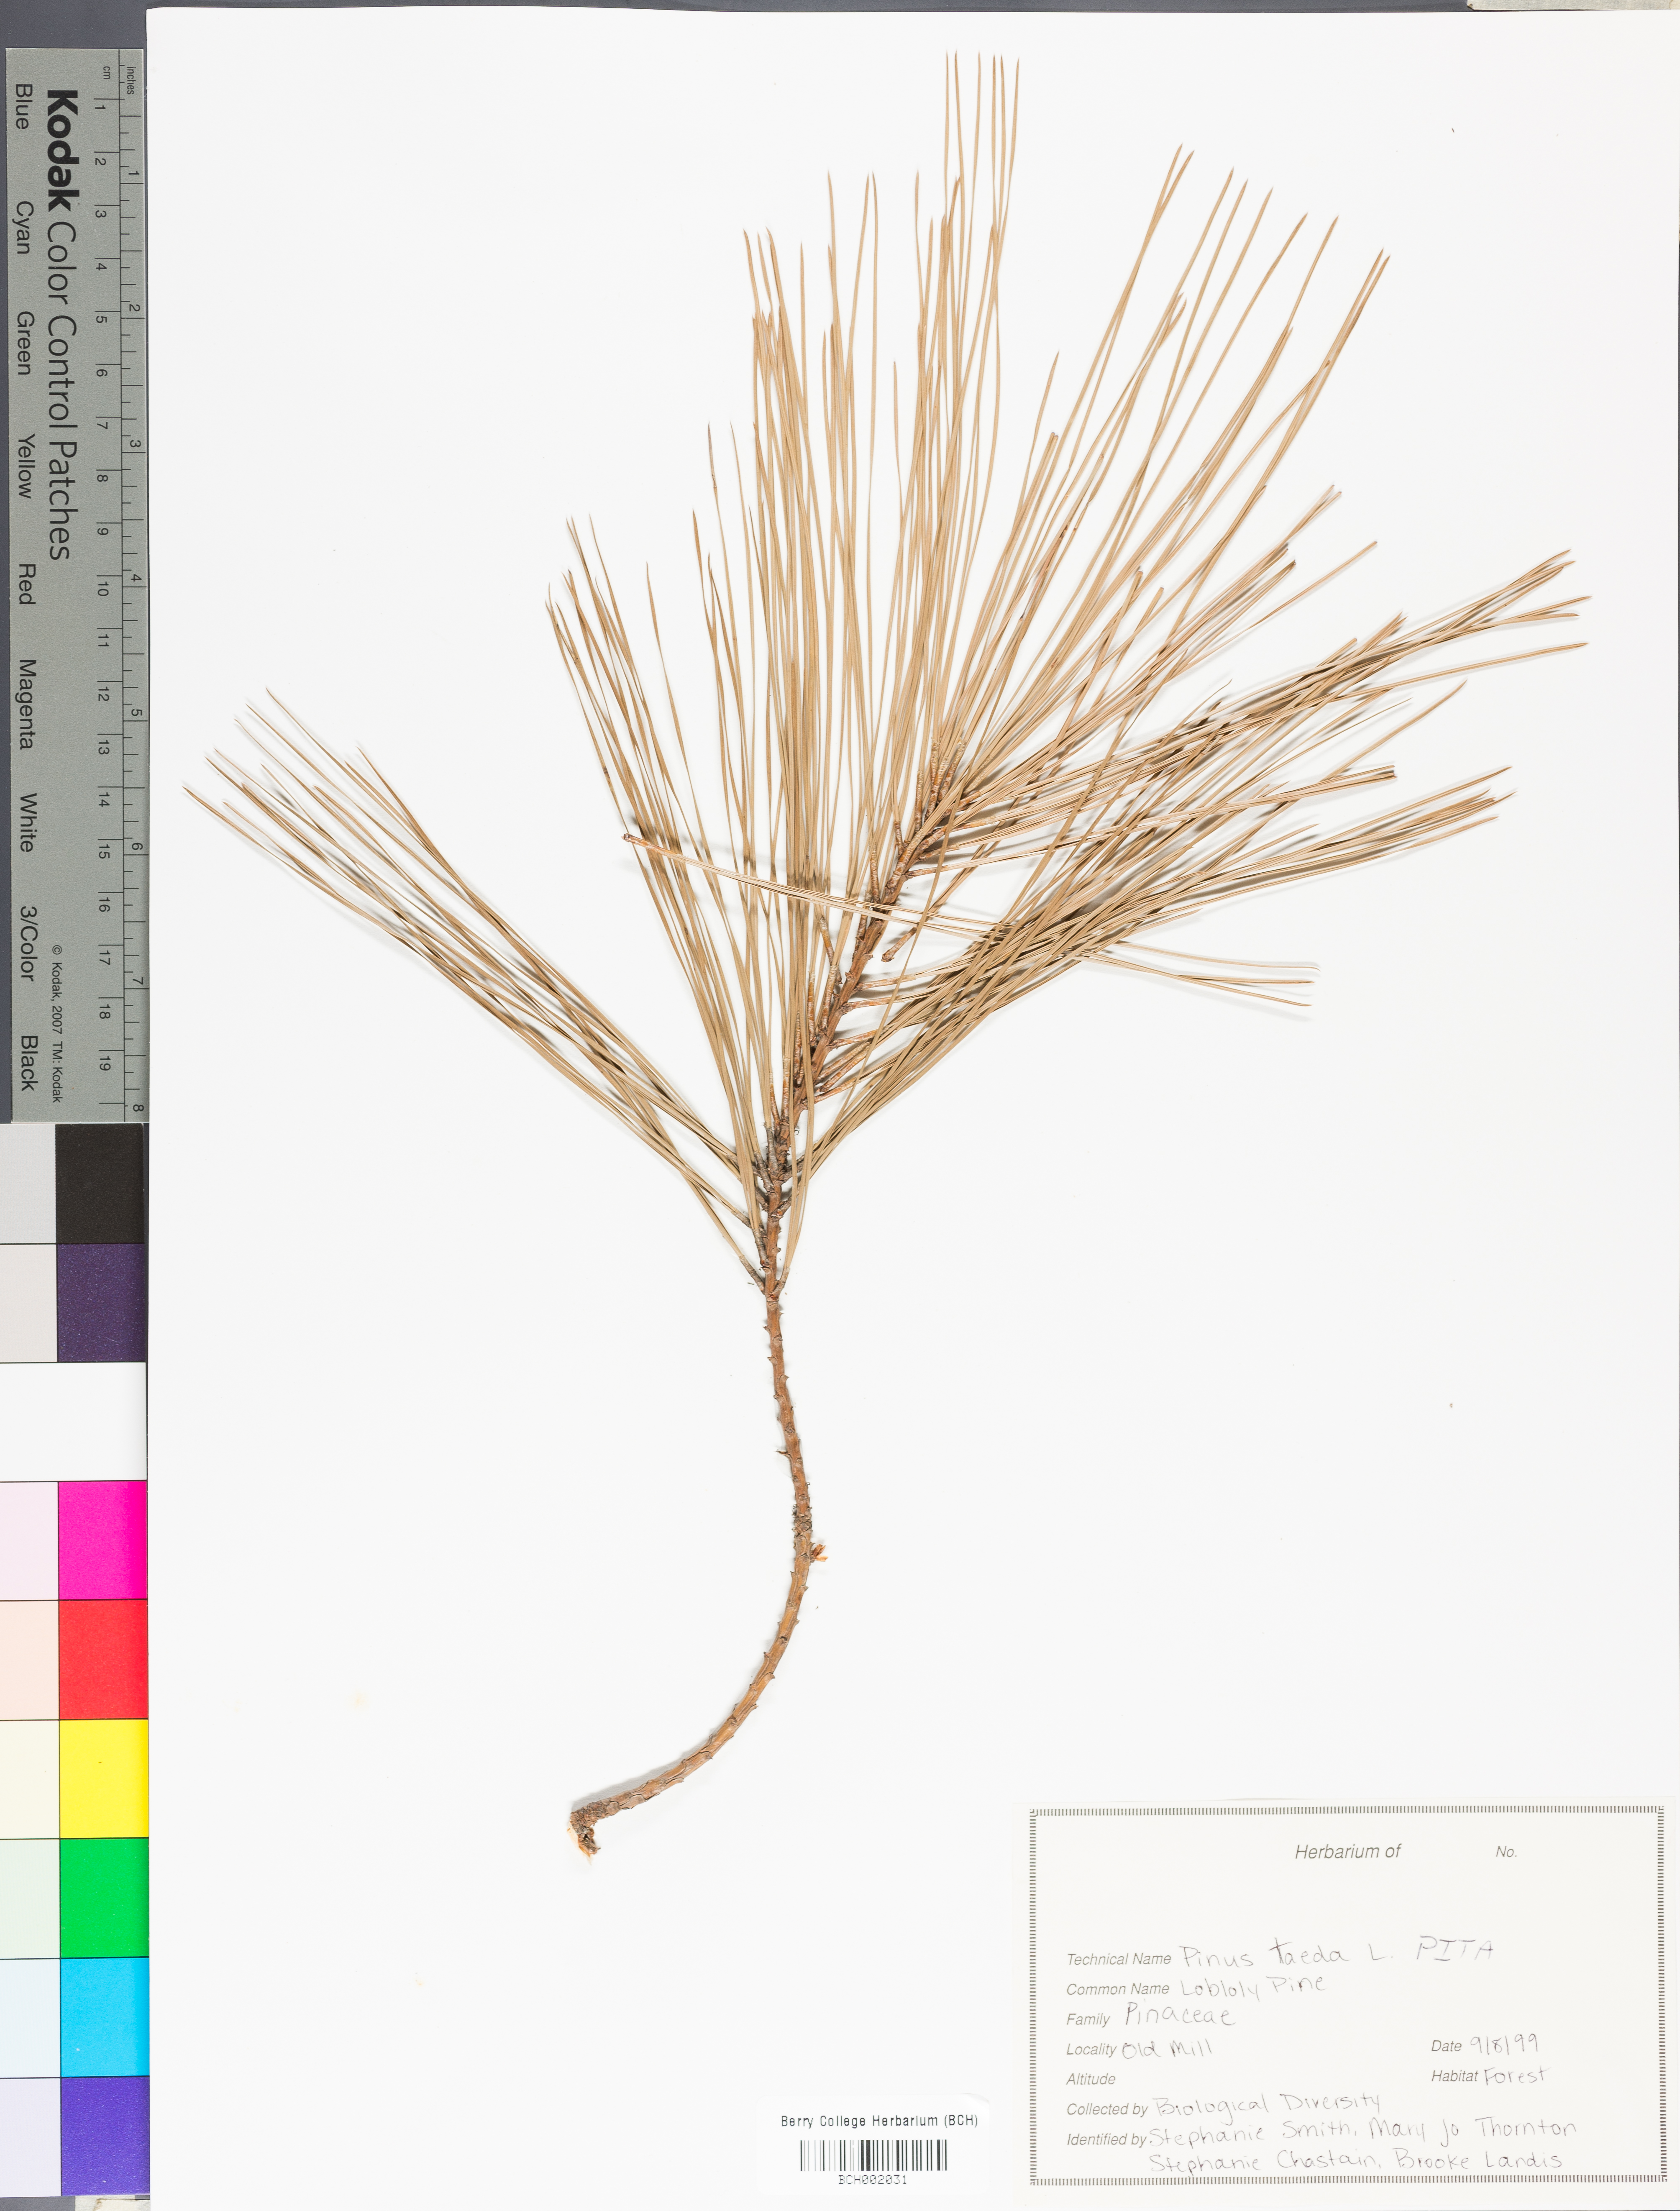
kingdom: Plantae
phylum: Tracheophyta
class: Pinopsida
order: Pinales
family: Pinaceae
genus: Pinus
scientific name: Pinus taeda
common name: Loblolly pine
